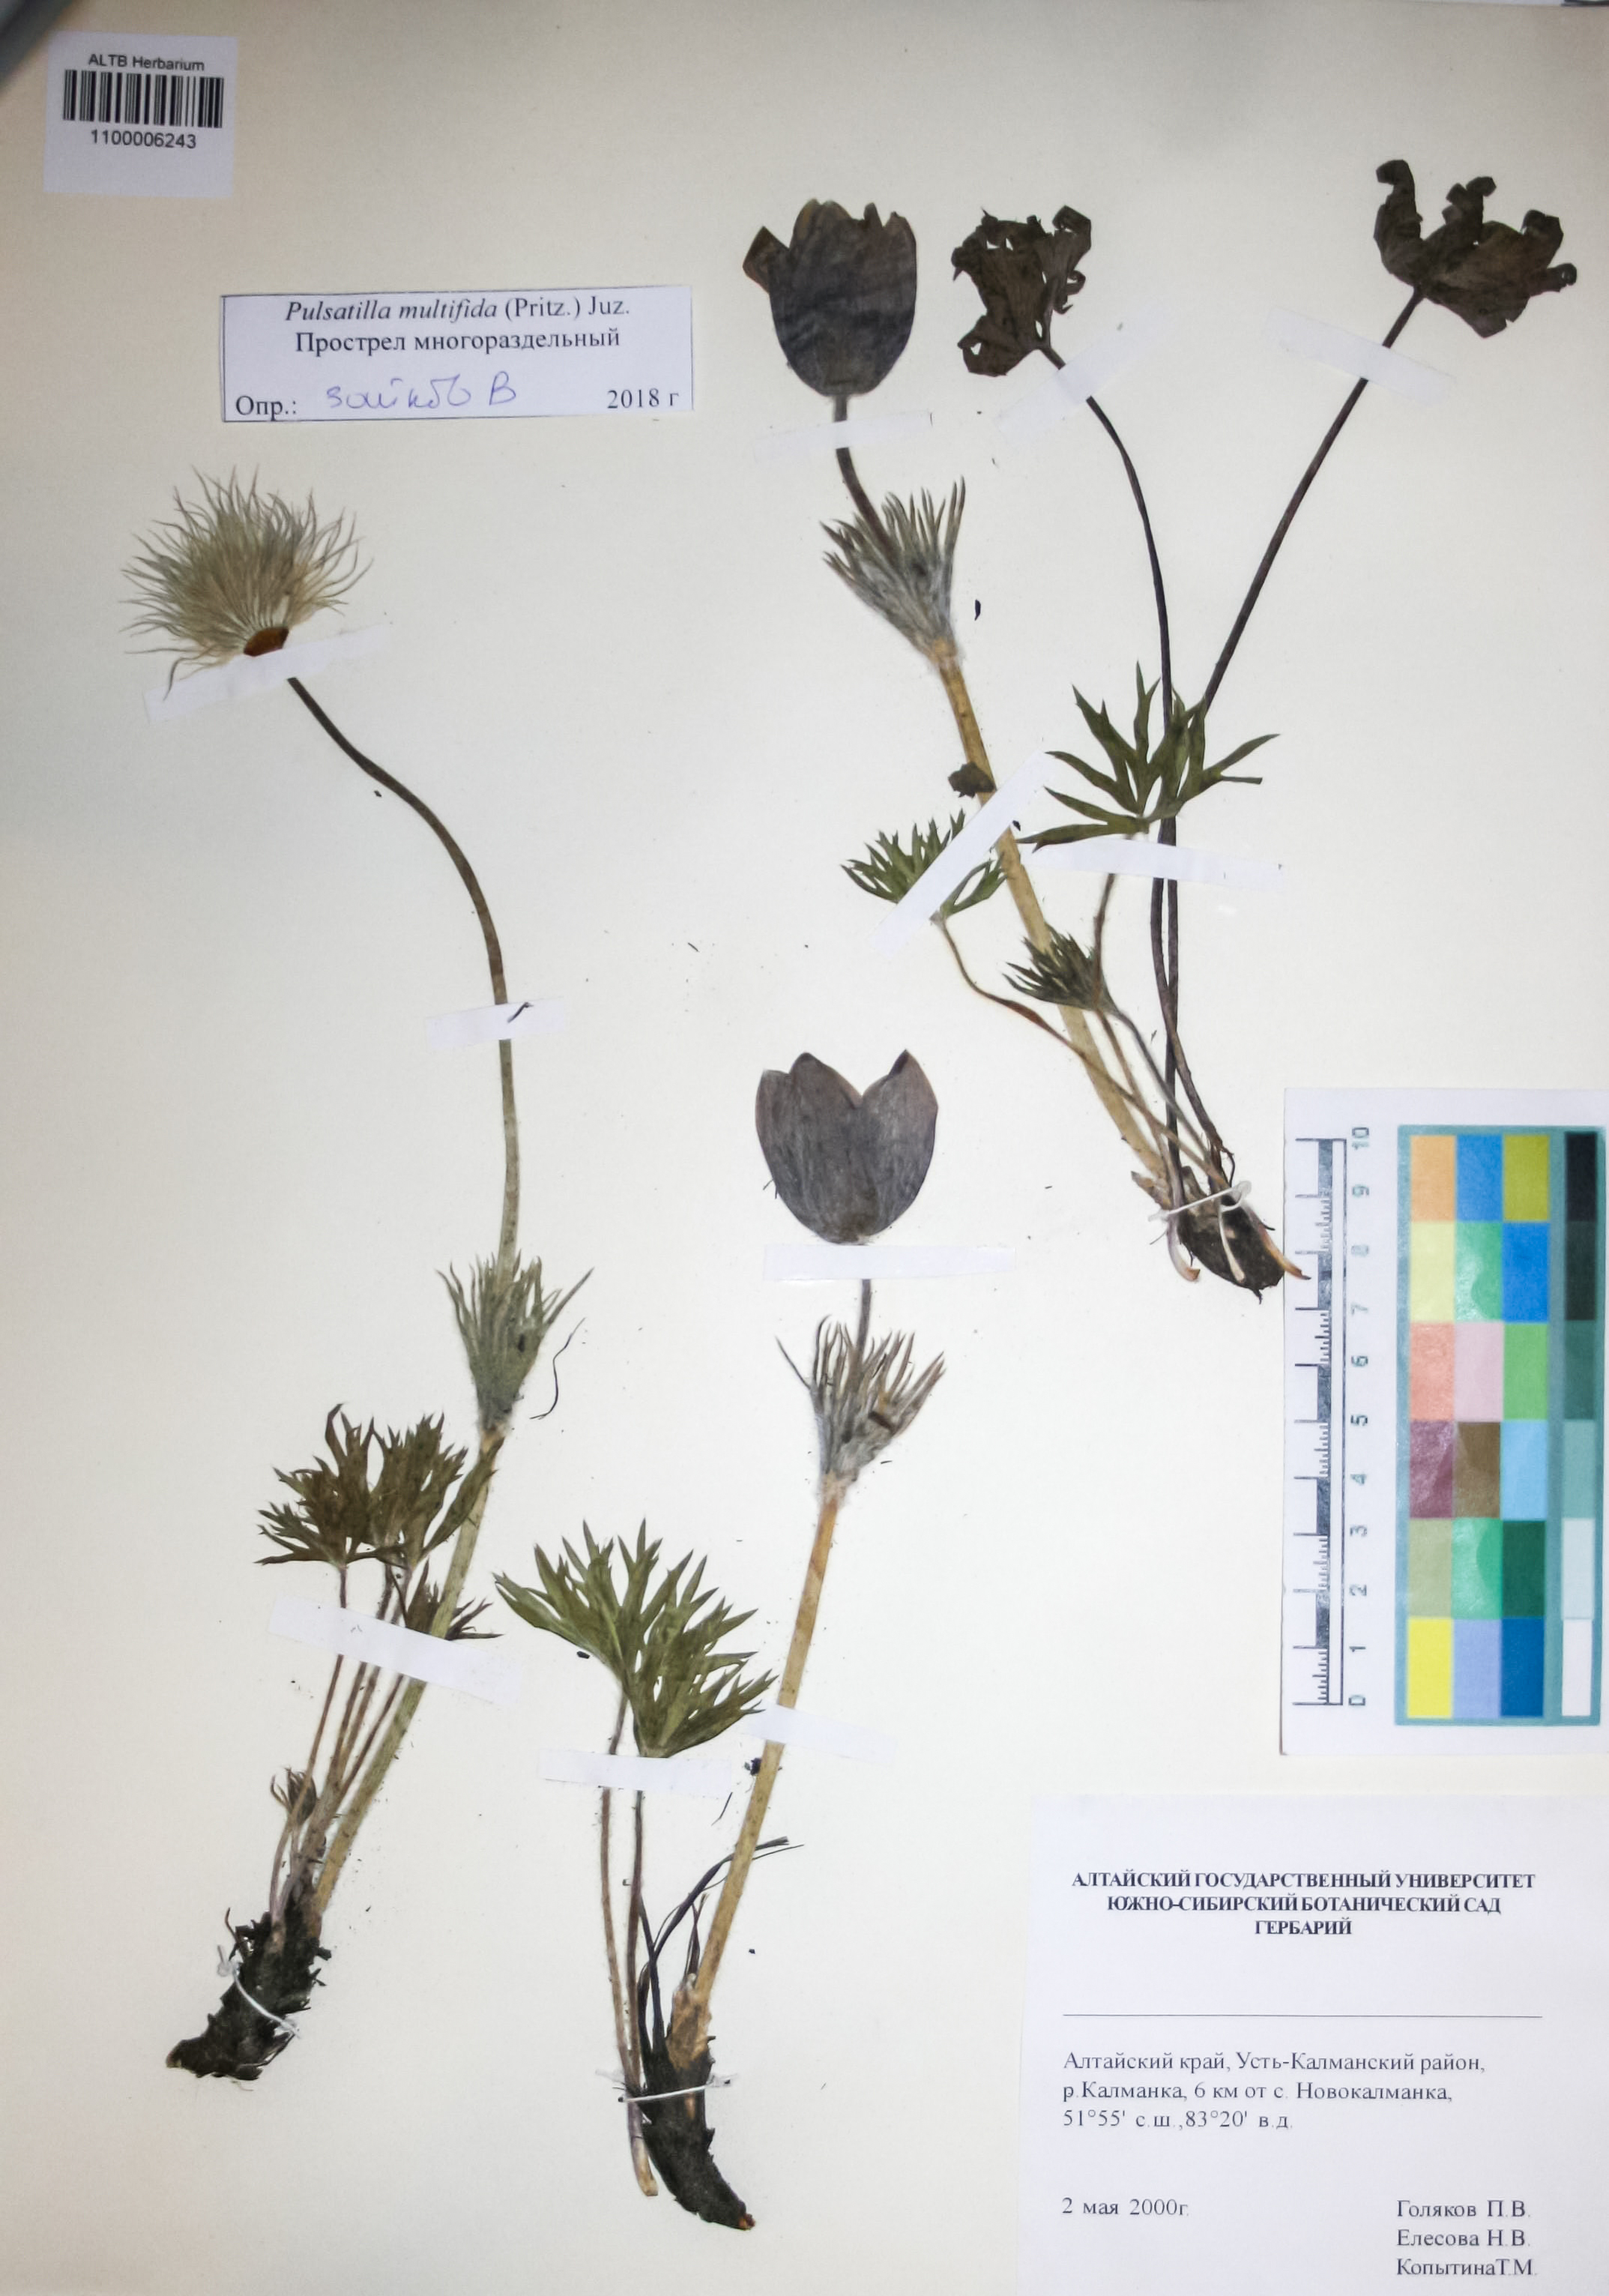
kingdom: Plantae
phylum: Tracheophyta
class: Magnoliopsida
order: Ranunculales
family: Ranunculaceae
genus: Pulsatilla
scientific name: Pulsatilla patens
